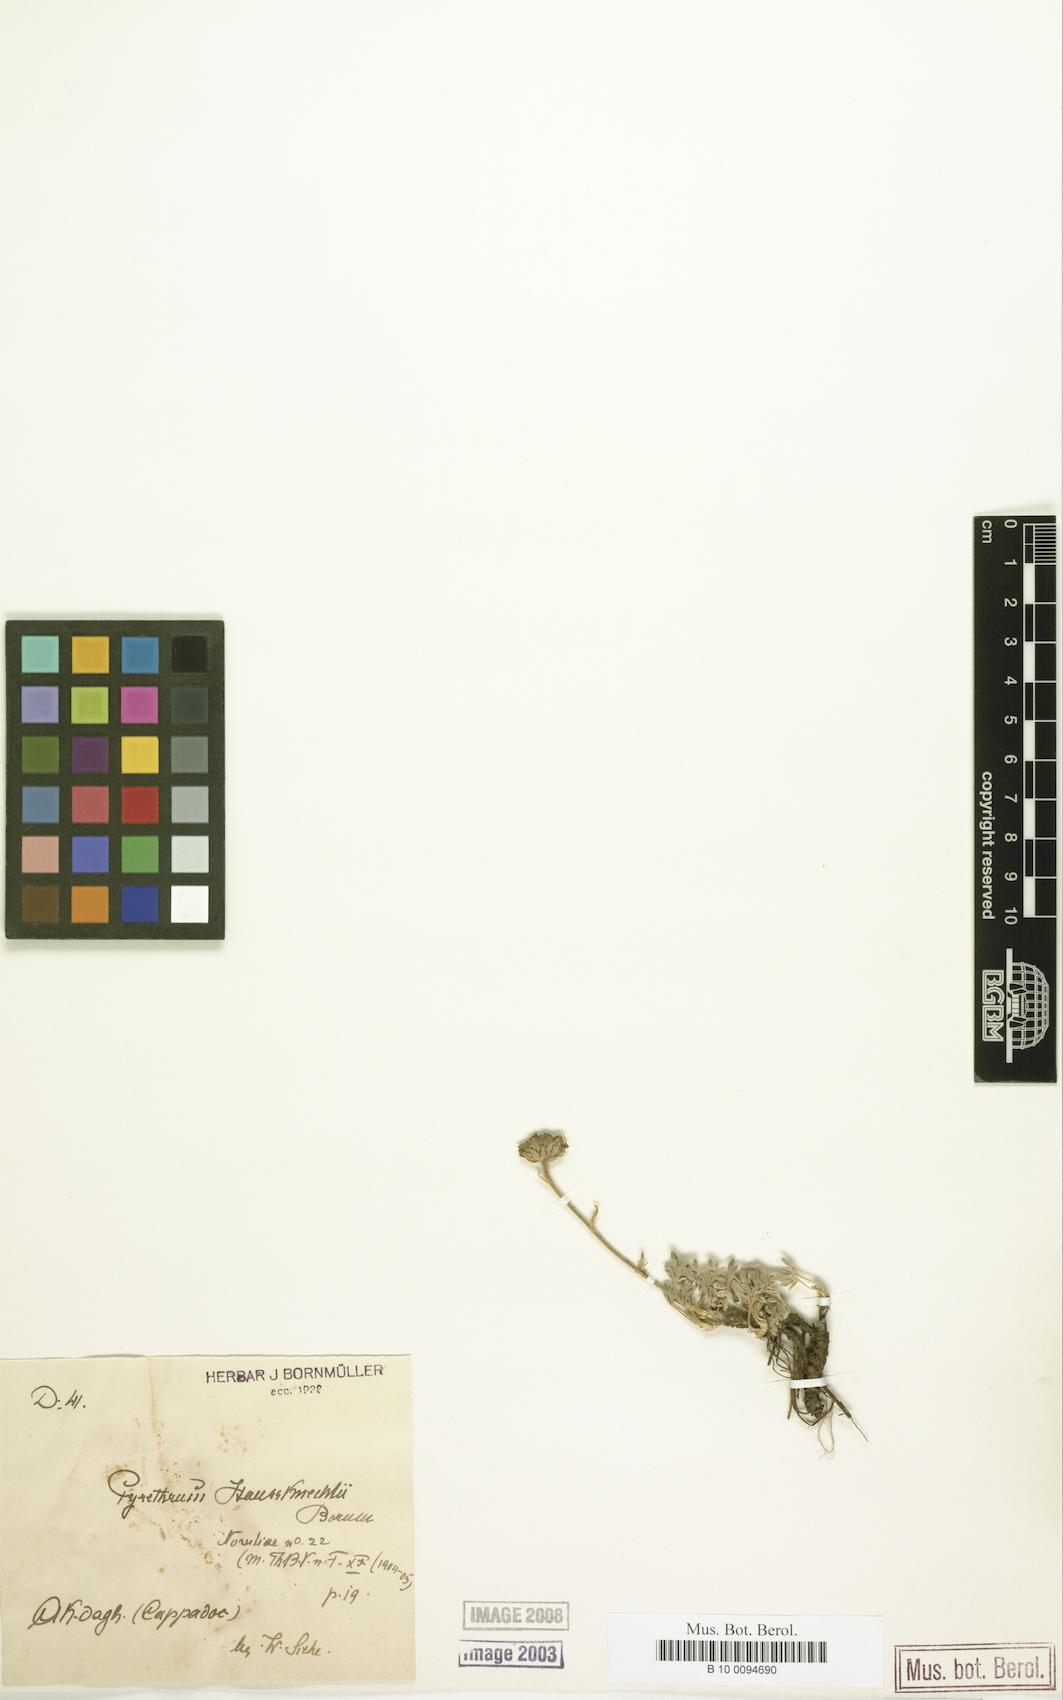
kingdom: Plantae
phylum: Tracheophyta
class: Magnoliopsida
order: Asterales
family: Asteraceae
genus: Tanacetum
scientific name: Tanacetum haussknechtii
